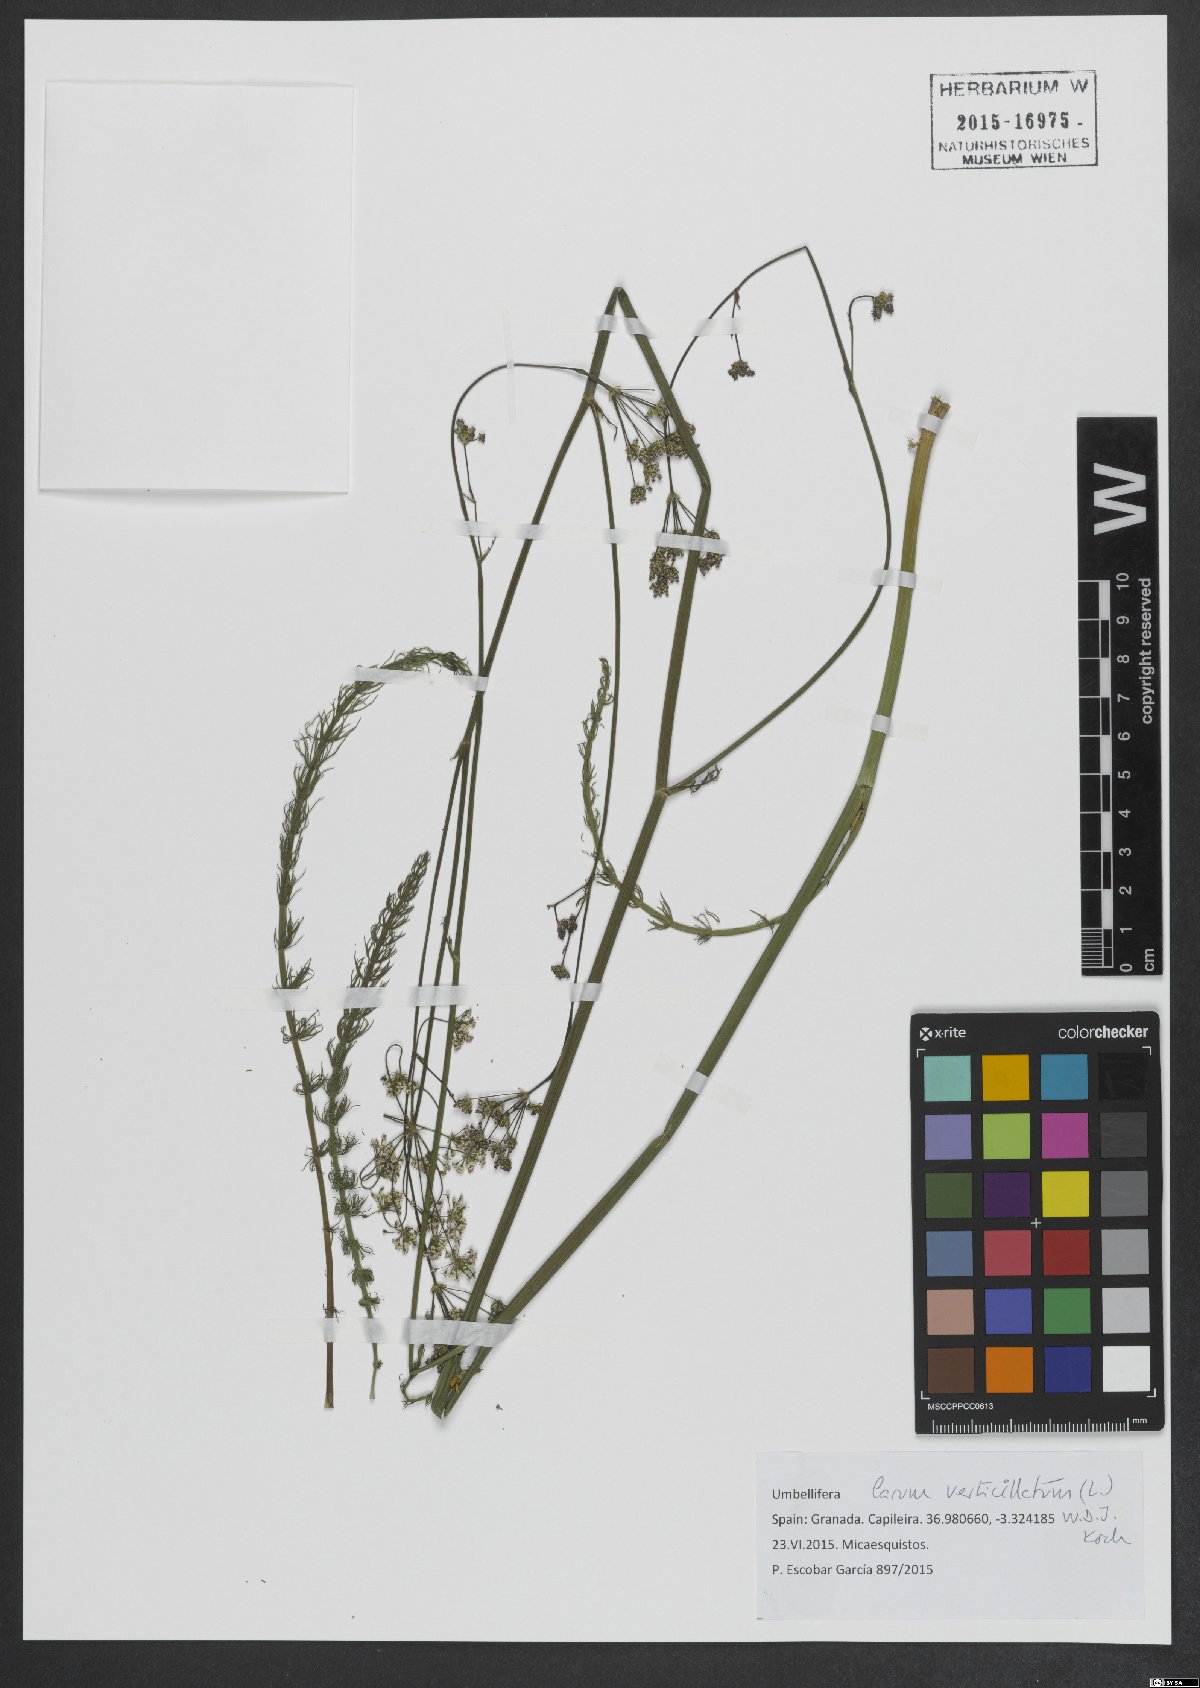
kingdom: Plantae
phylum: Tracheophyta
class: Magnoliopsida
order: Apiales
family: Apiaceae
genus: Trocdaris
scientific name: Trocdaris verticillatum
